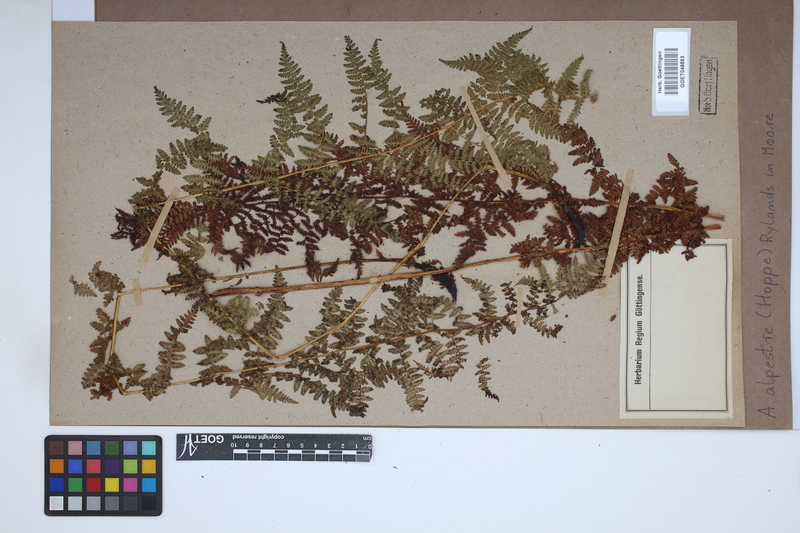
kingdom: Plantae
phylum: Tracheophyta
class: Polypodiopsida
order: Polypodiales
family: Athyriaceae
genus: Pseudathyrium
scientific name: Pseudathyrium alpestre
